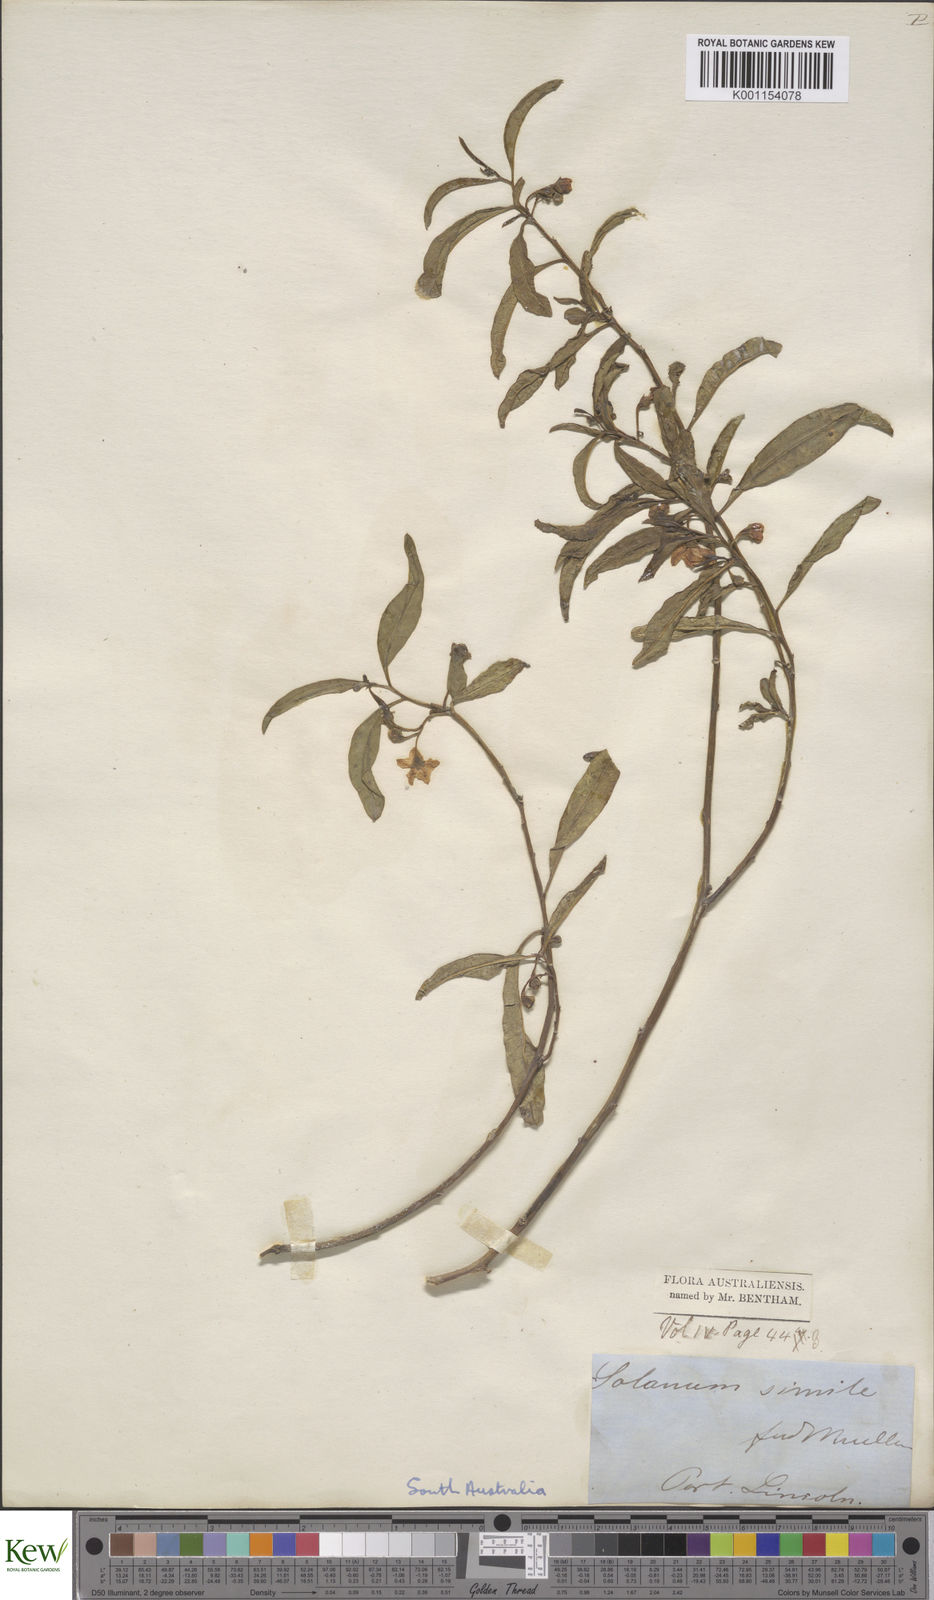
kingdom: Plantae
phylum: Tracheophyta
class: Magnoliopsida
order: Solanales
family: Solanaceae
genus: Solanum
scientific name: Solanum simile
